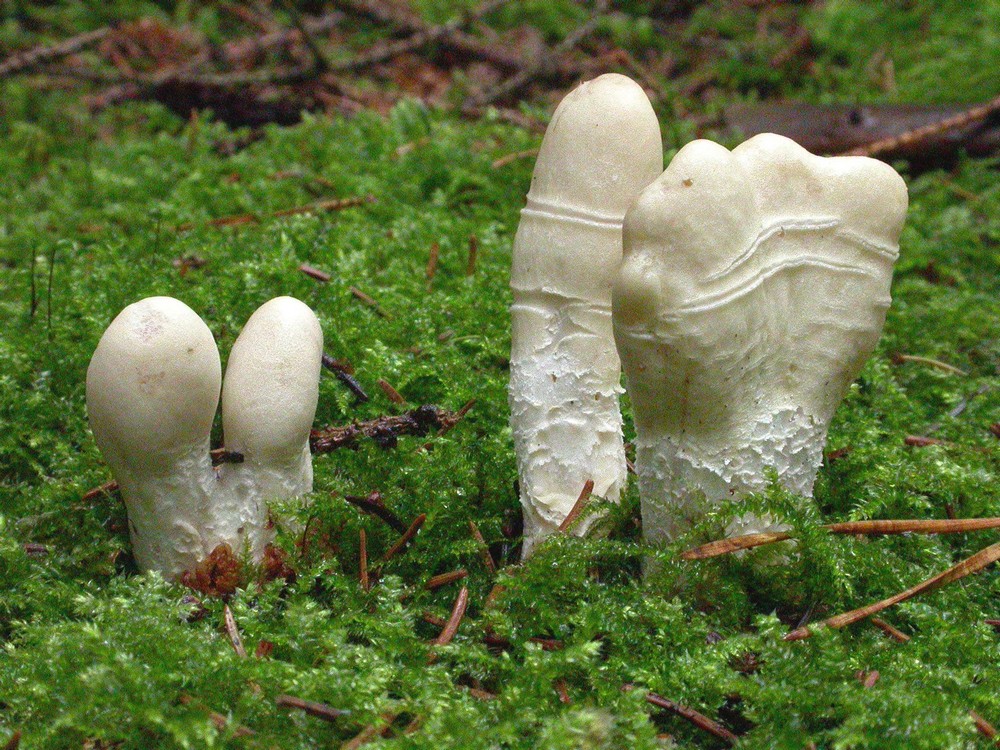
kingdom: Fungi
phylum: Ascomycota
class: Sordariomycetes
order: Hypocreales
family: Hypocreaceae
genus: Trichoderma
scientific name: Trichoderma leucopus
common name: lysstokket kødkerne
